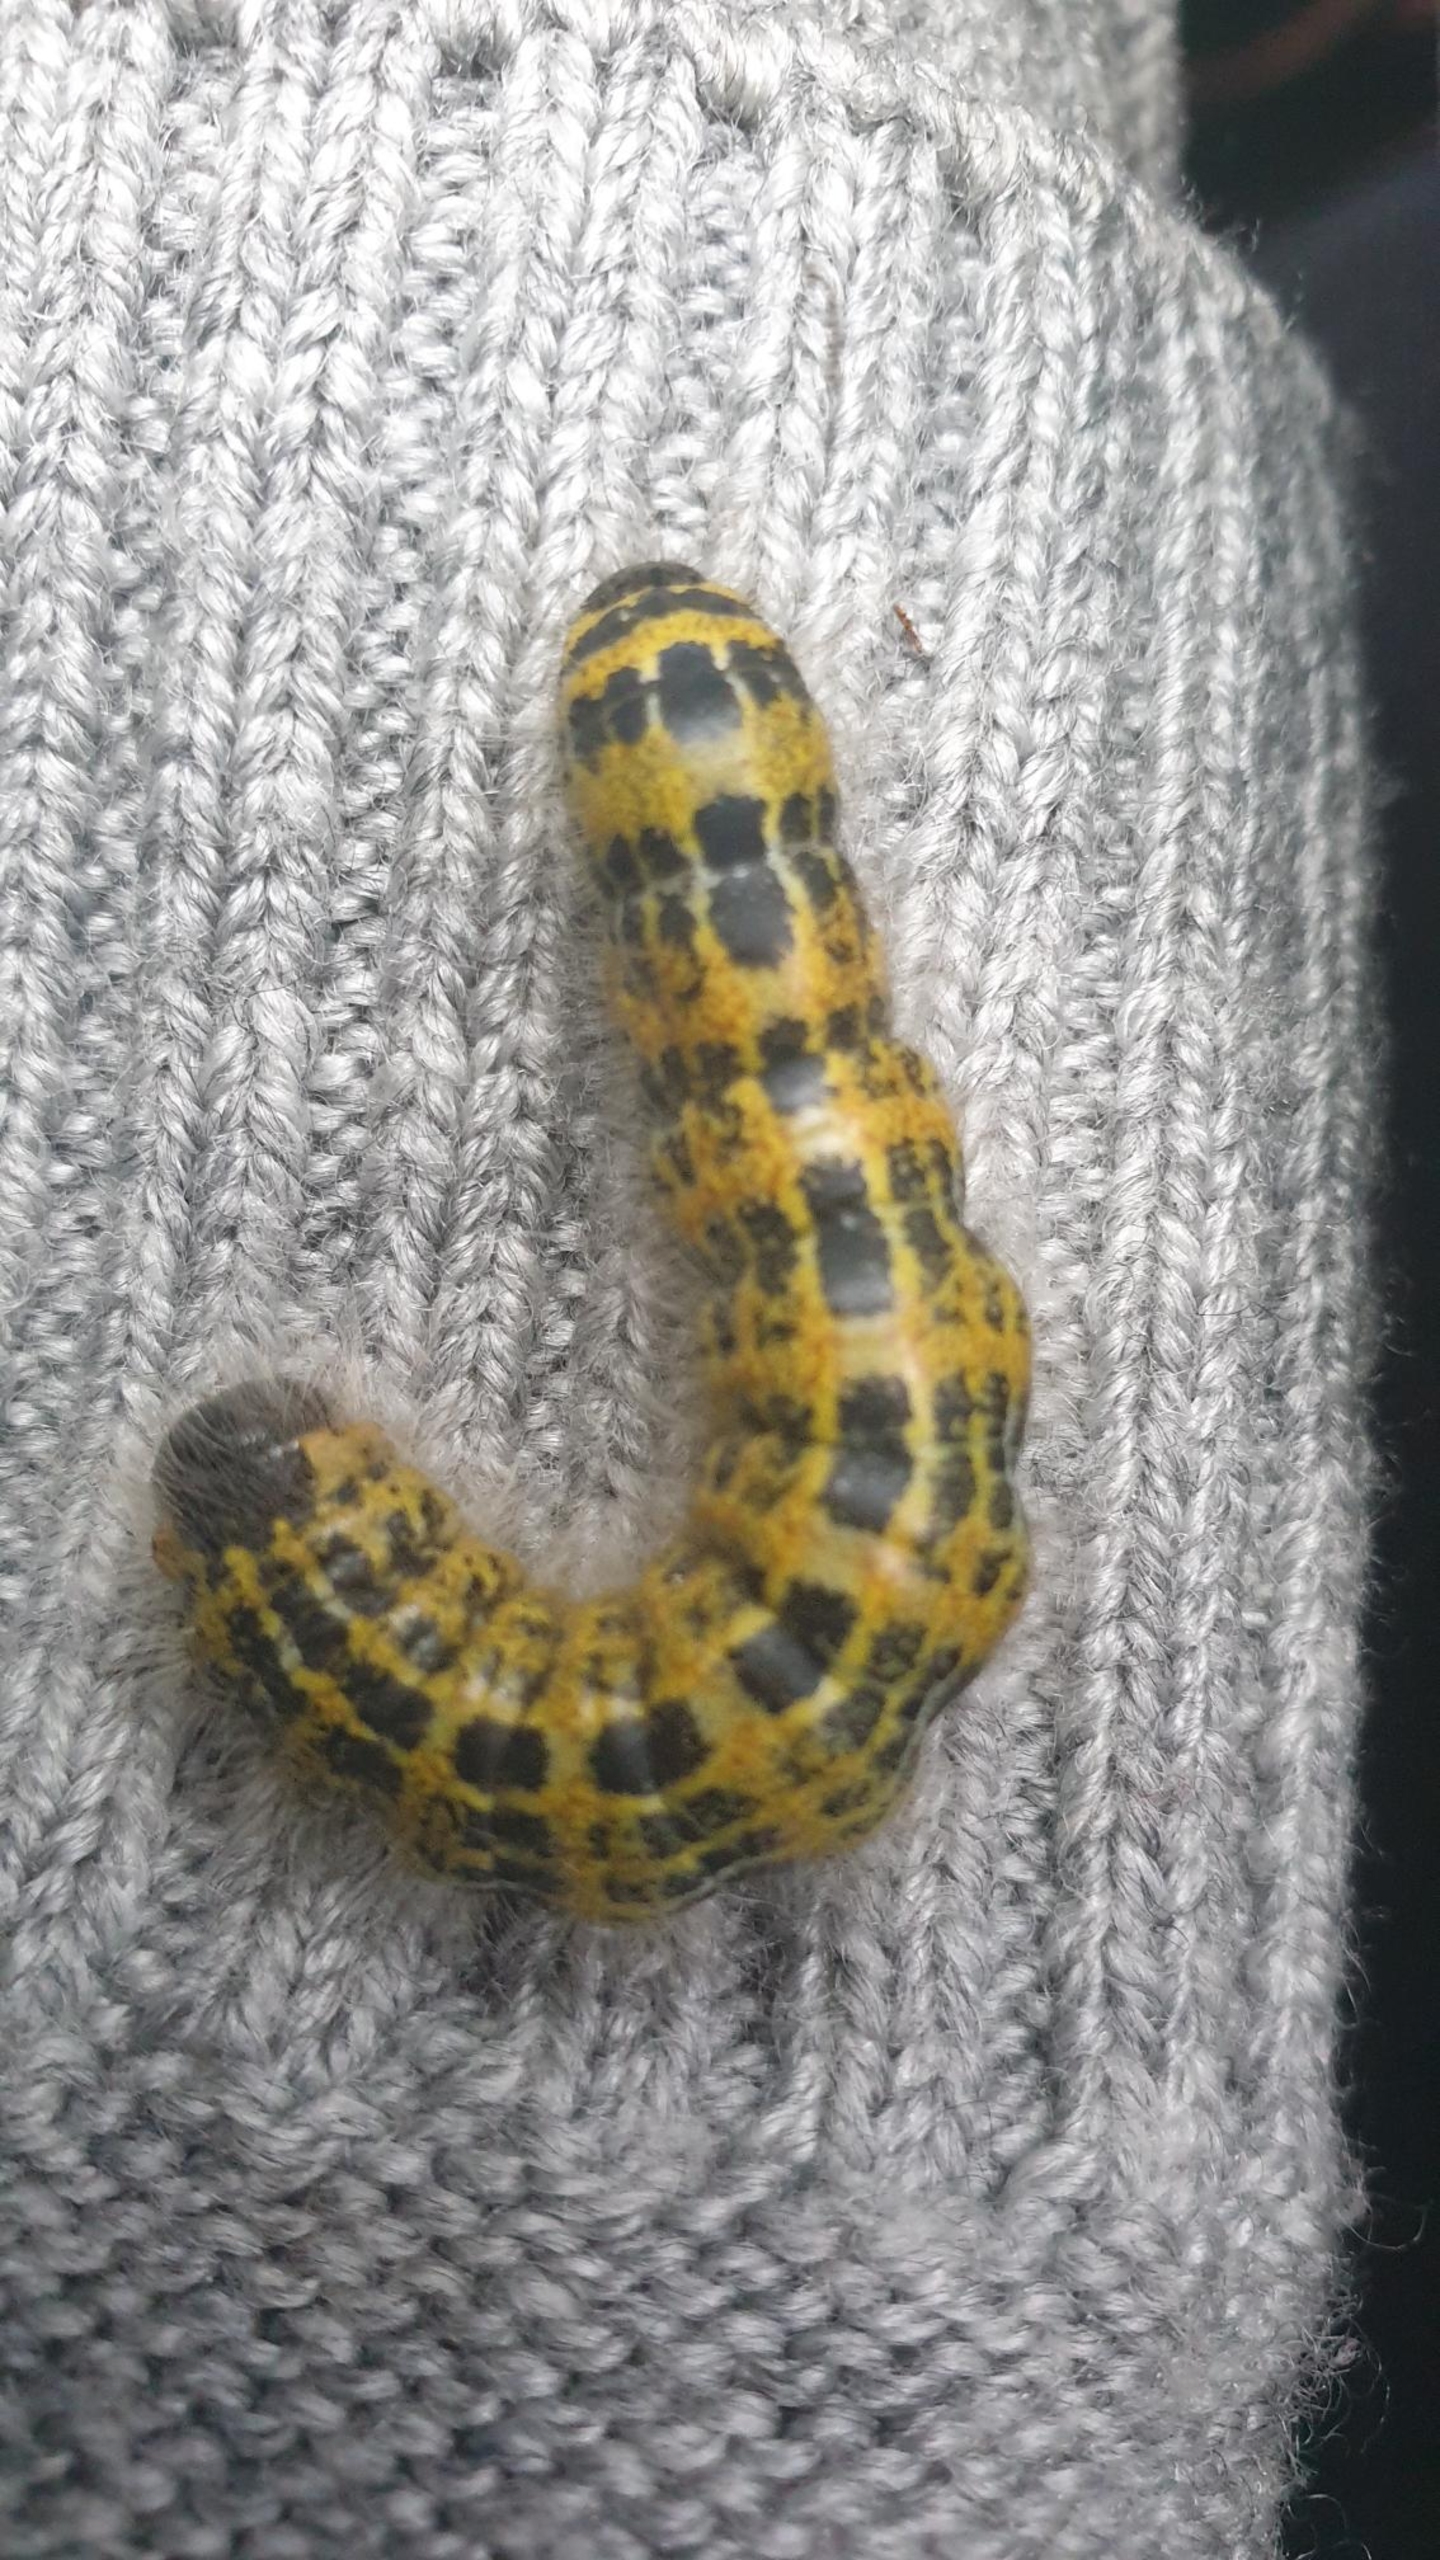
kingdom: Animalia
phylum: Arthropoda
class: Insecta
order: Lepidoptera
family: Notodontidae
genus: Phalera
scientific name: Phalera bucephala
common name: Måneplet
